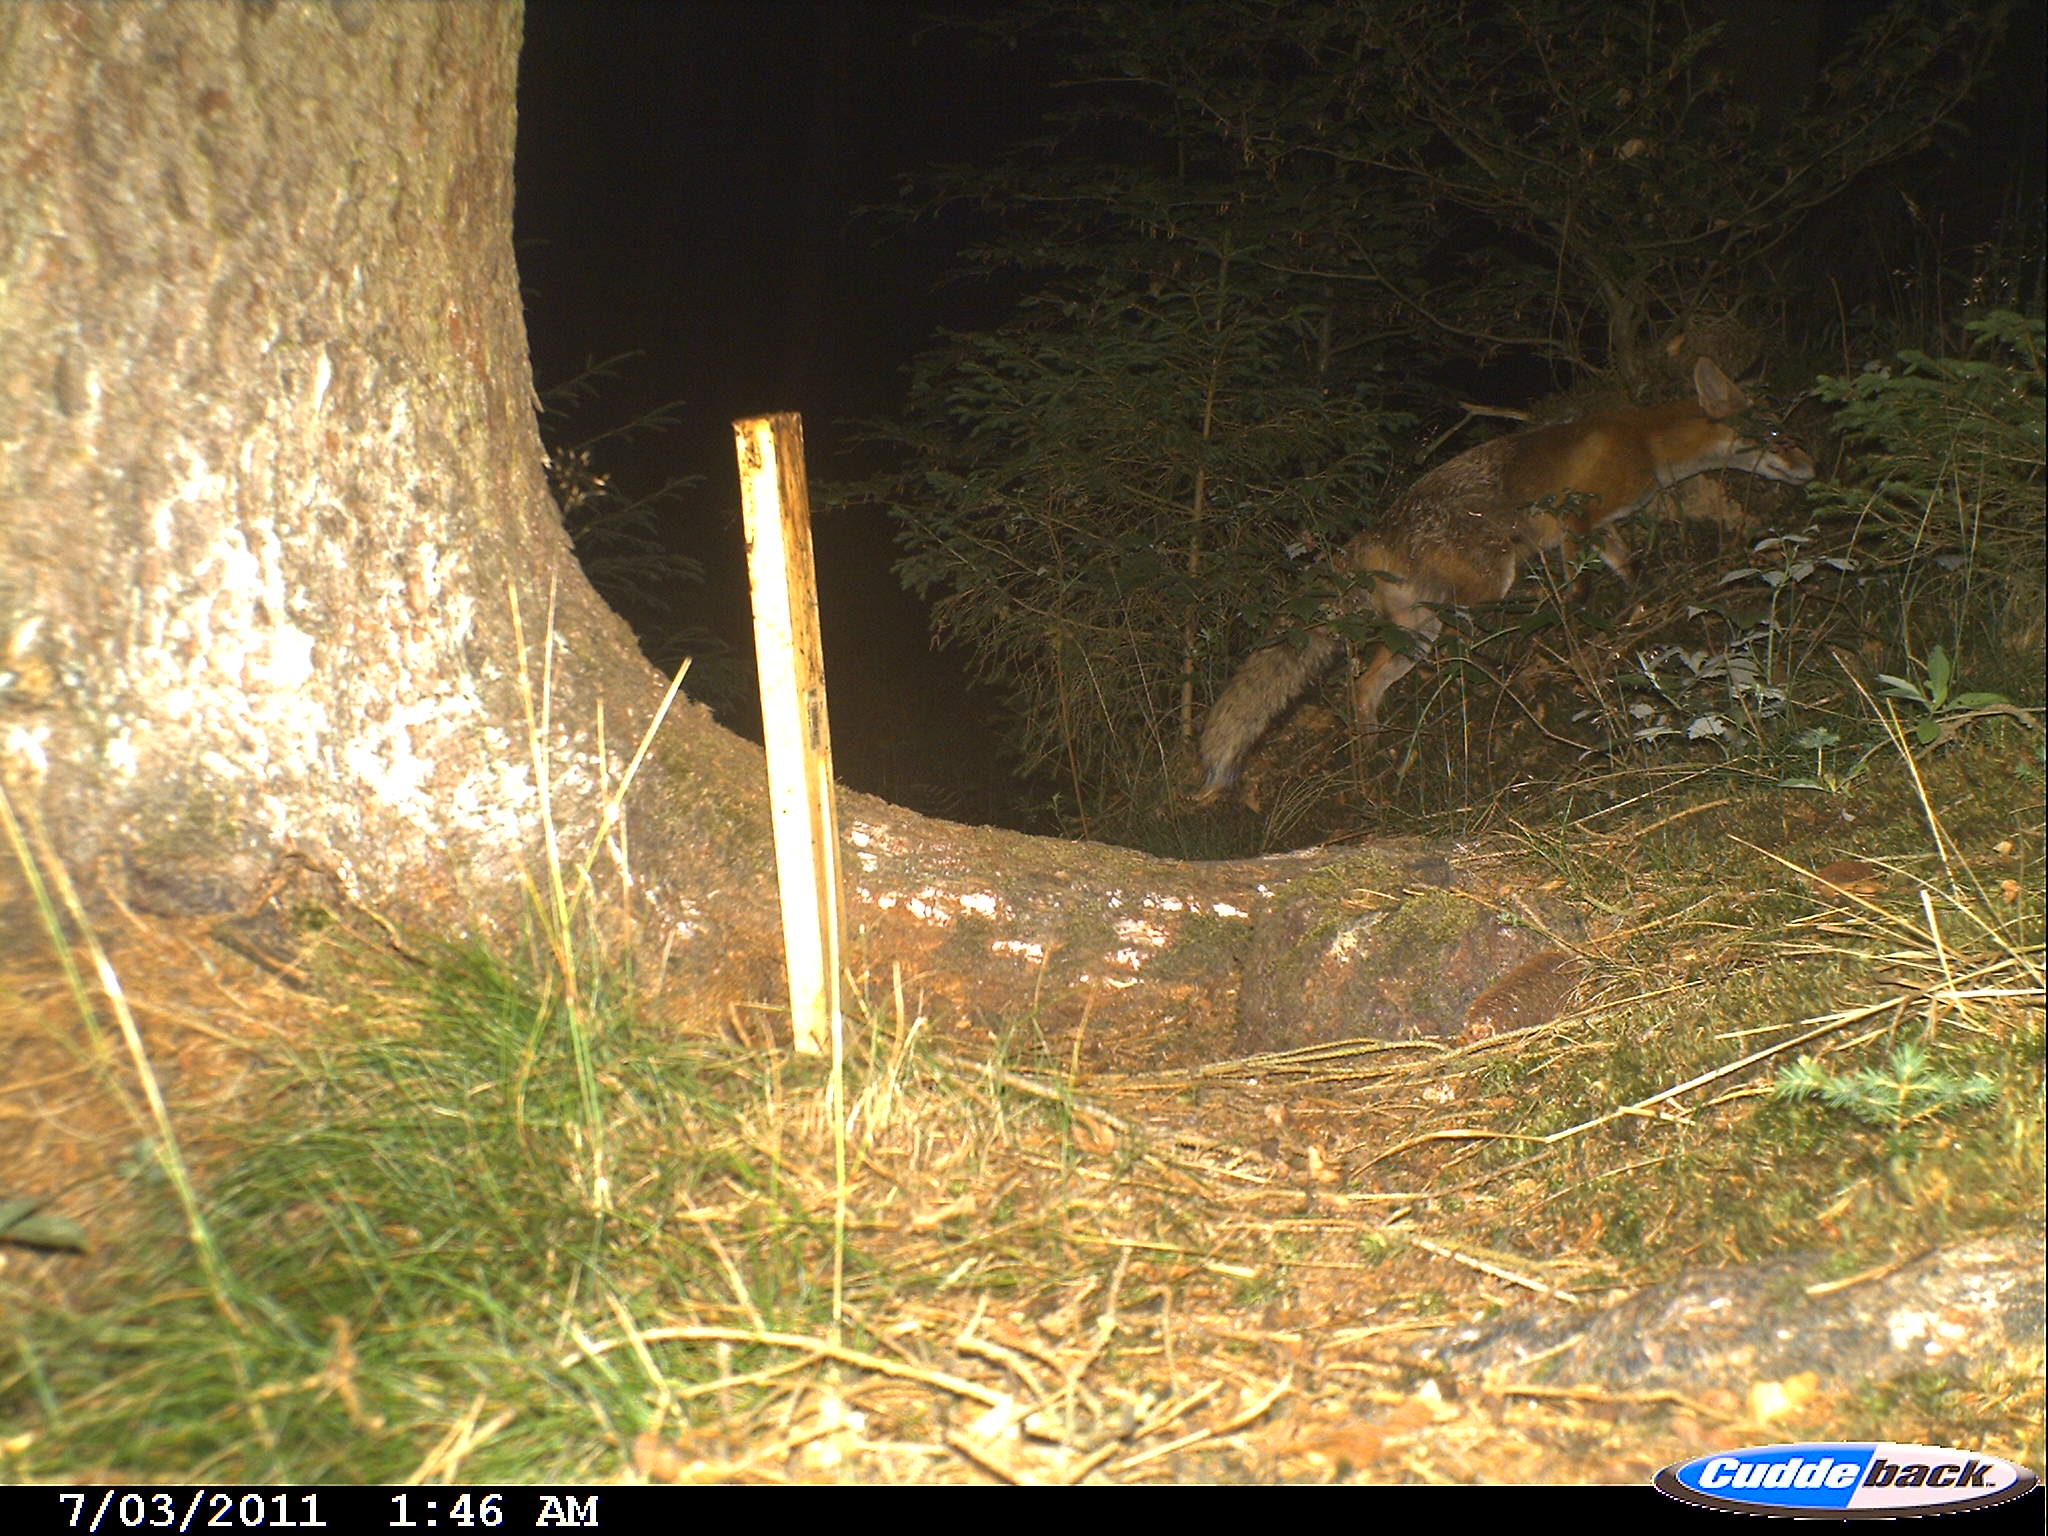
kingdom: Animalia
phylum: Chordata
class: Mammalia
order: Carnivora
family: Canidae
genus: Vulpes
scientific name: Vulpes vulpes
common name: Red fox
